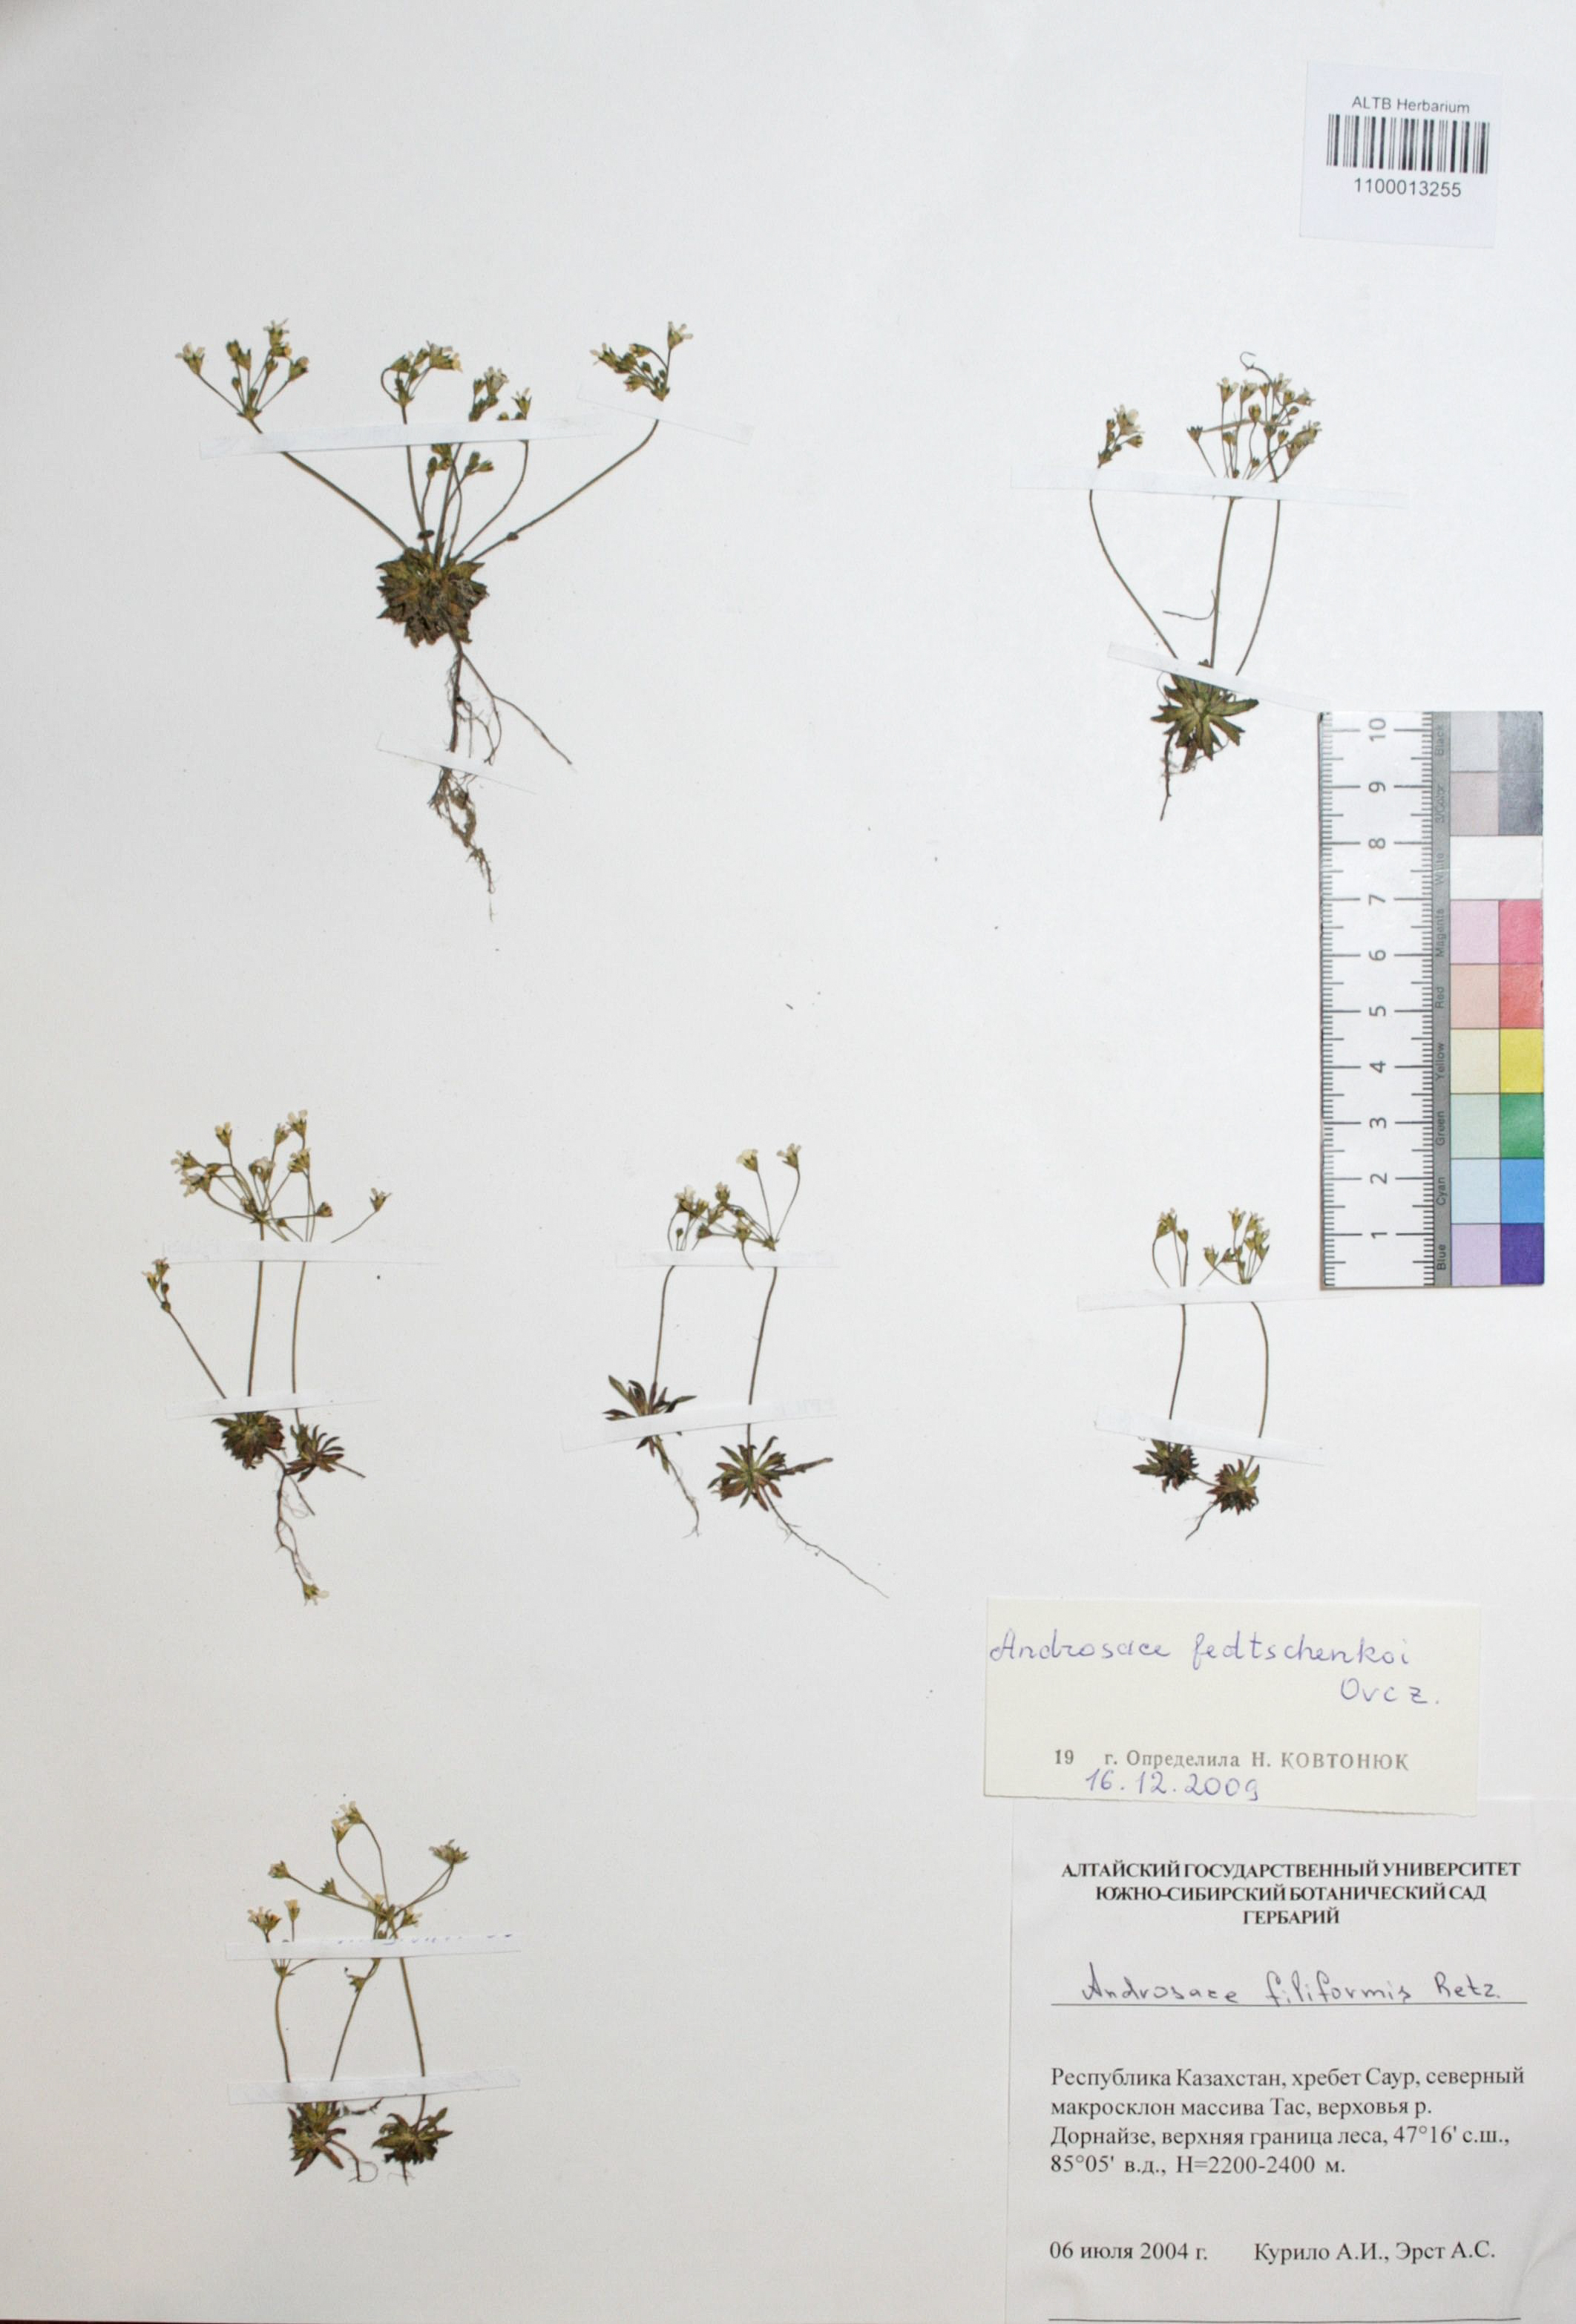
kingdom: Plantae
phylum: Tracheophyta
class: Magnoliopsida
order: Ericales
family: Primulaceae
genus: Androsace
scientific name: Androsace fedtschenkoi
